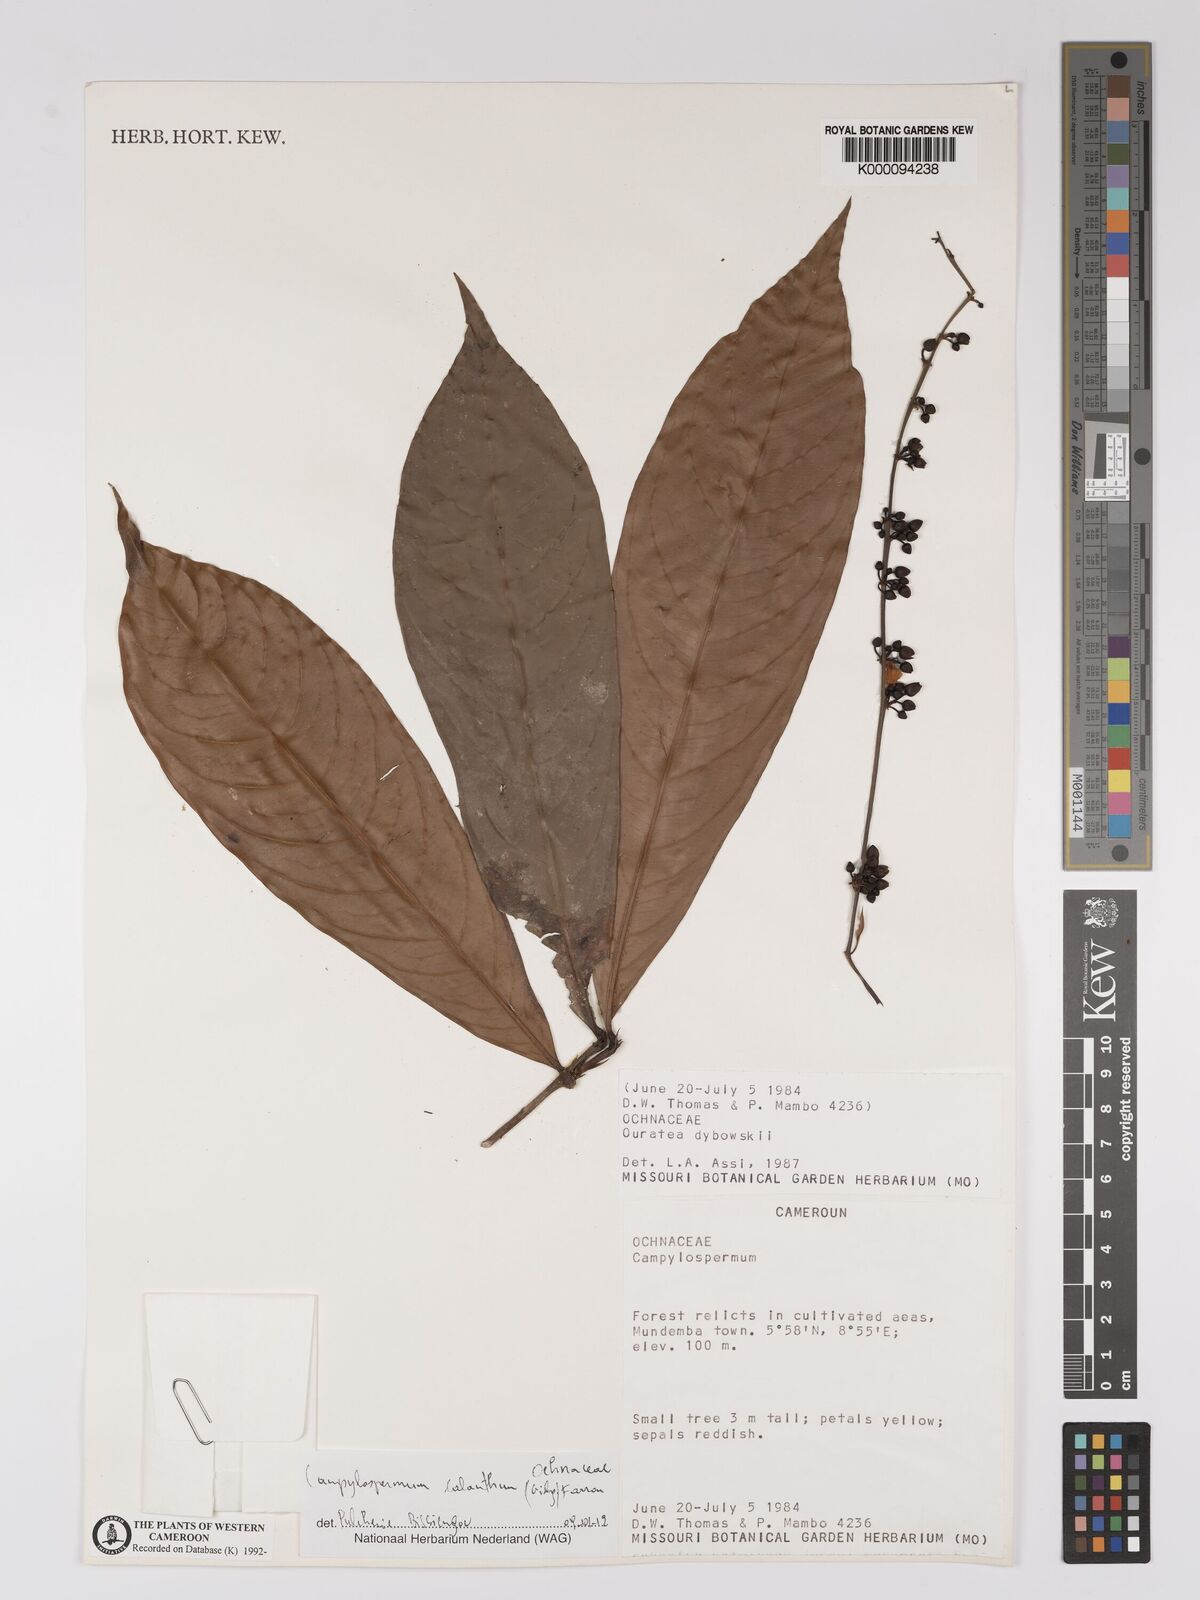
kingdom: Plantae
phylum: Tracheophyta
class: Magnoliopsida
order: Malpighiales
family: Ochnaceae
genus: Ouratea
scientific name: Ouratea
